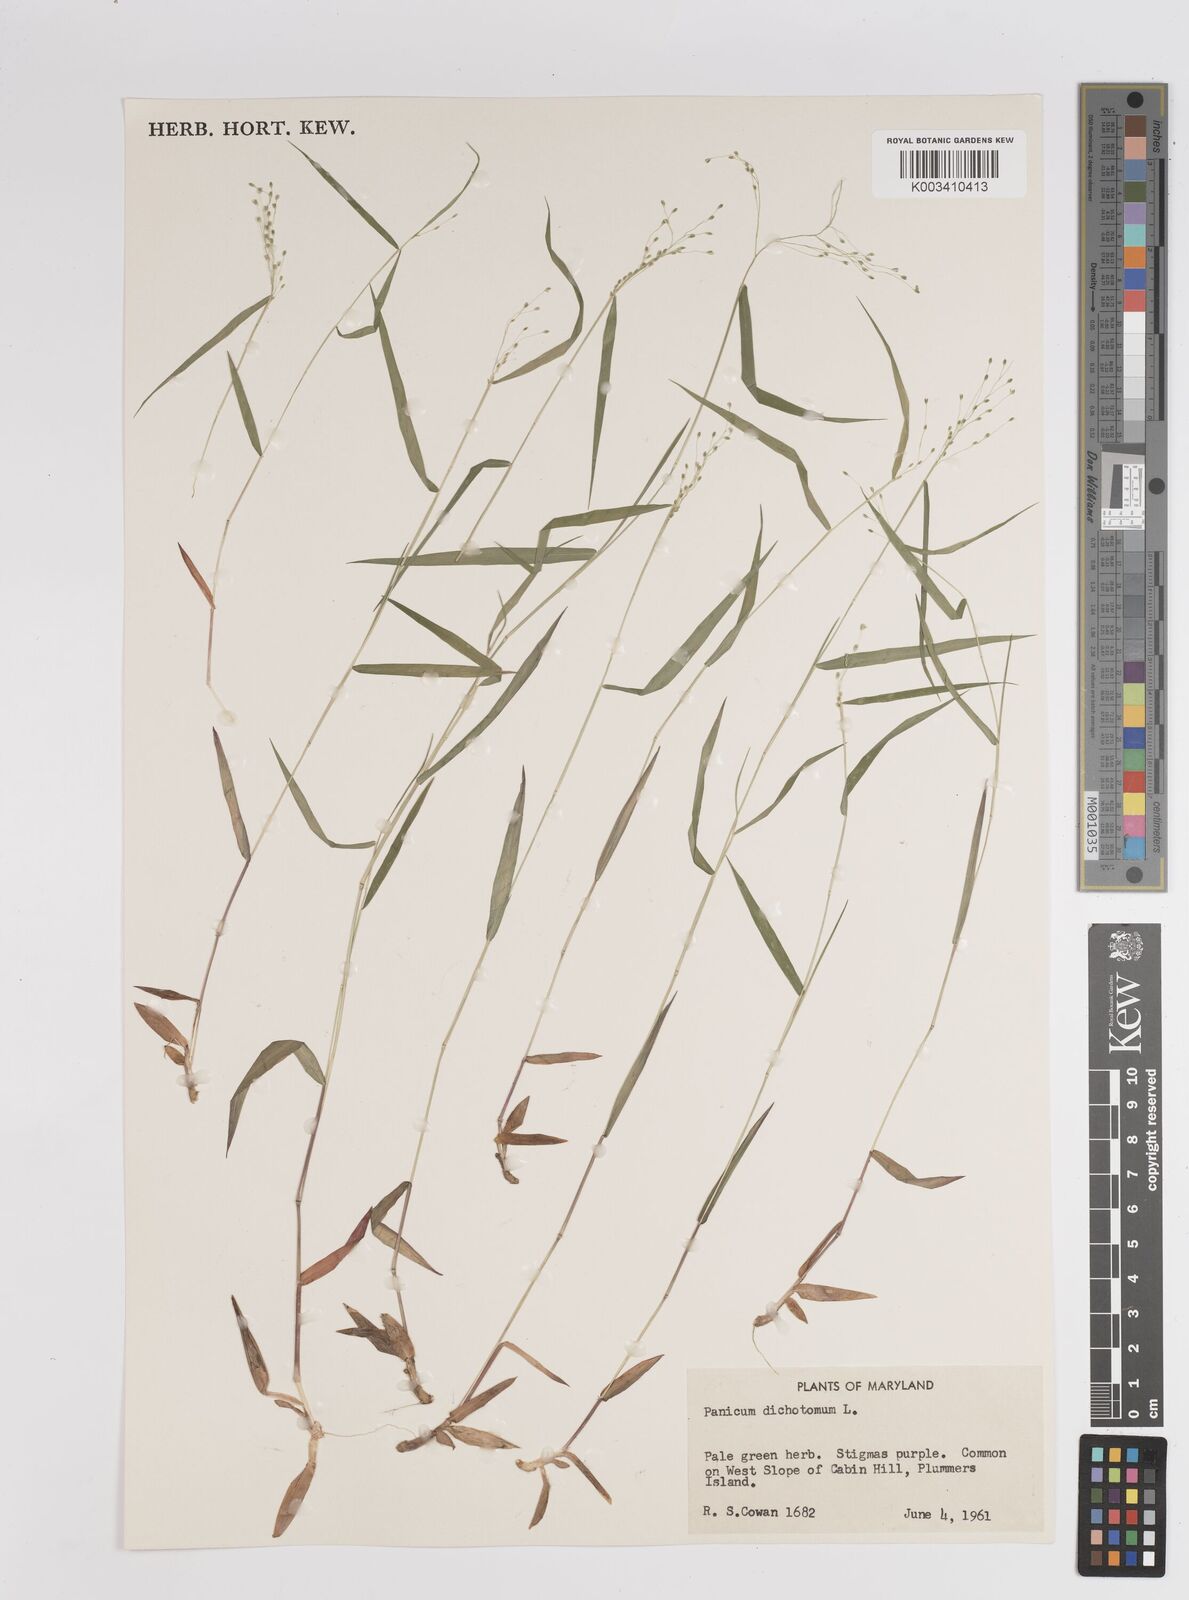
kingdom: Plantae
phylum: Tracheophyta
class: Liliopsida
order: Poales
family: Poaceae
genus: Dichanthelium
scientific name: Dichanthelium dichotomum
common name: Cypress panicgrass
